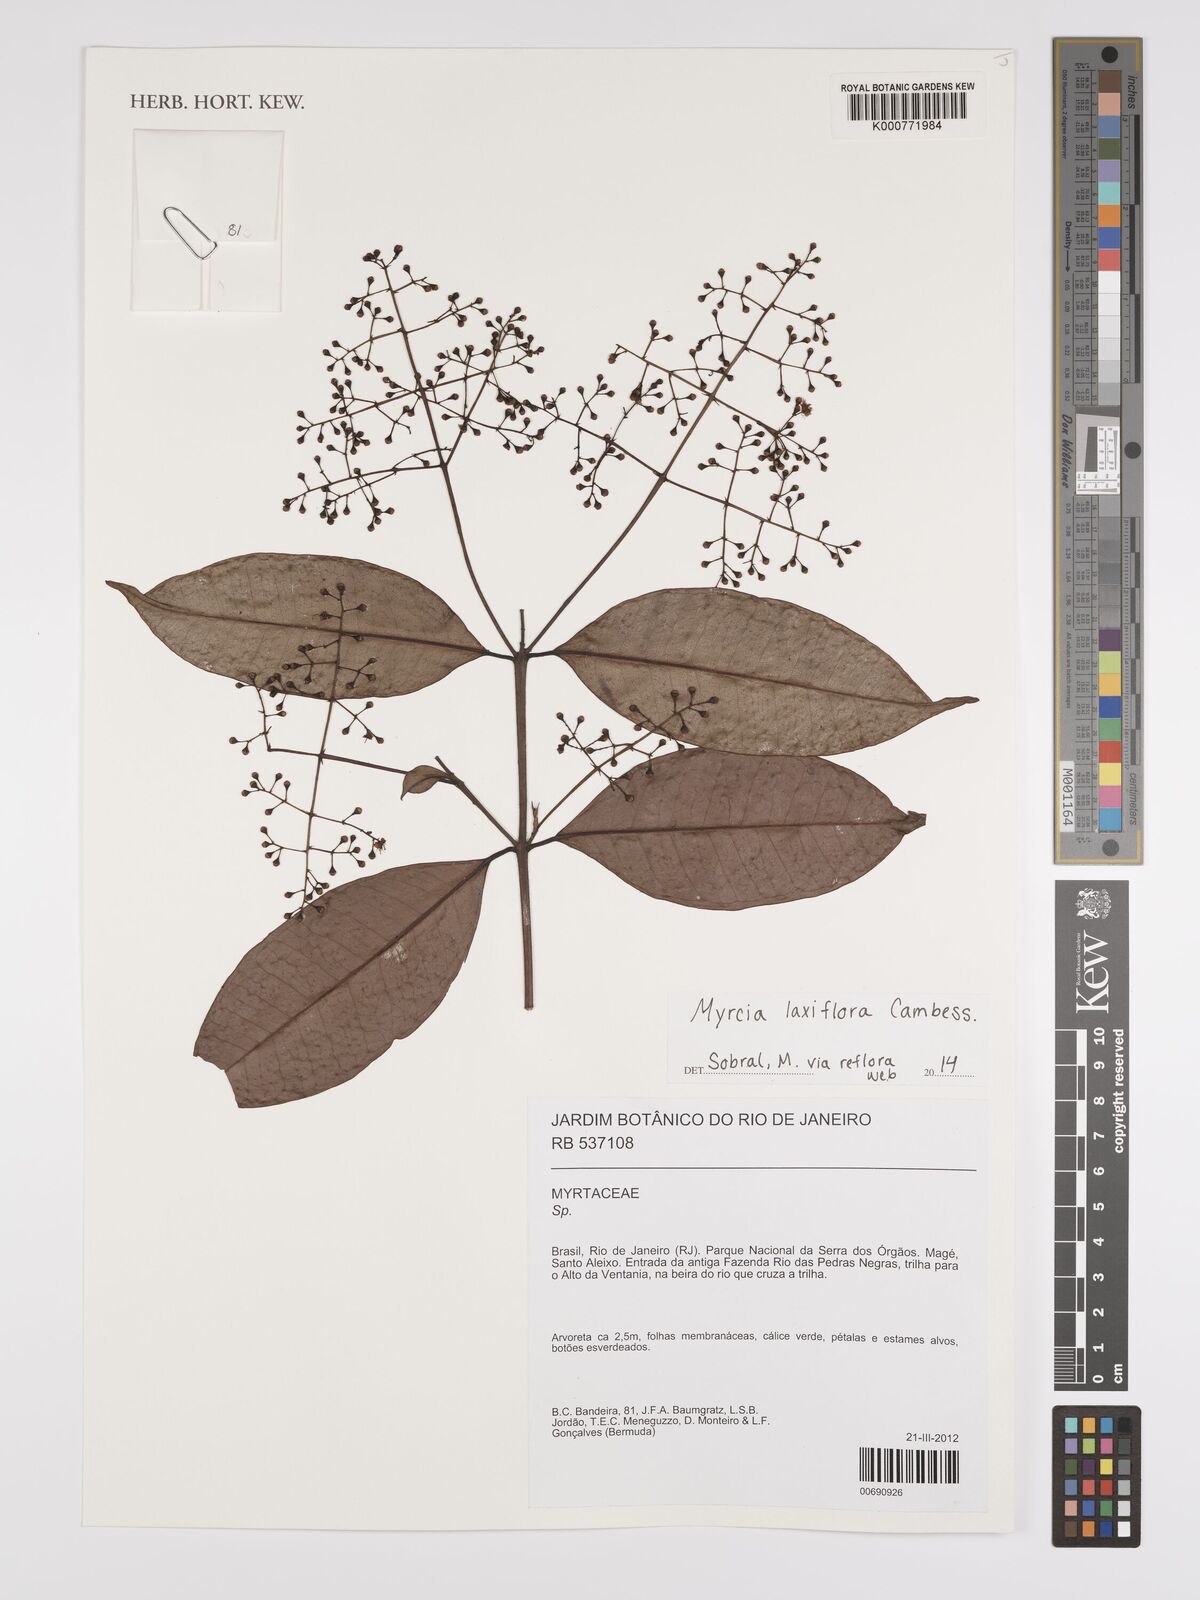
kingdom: Plantae
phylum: Tracheophyta
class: Magnoliopsida
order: Myrtales
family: Myrtaceae
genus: Myrcia
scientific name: Myrcia laxiflora
